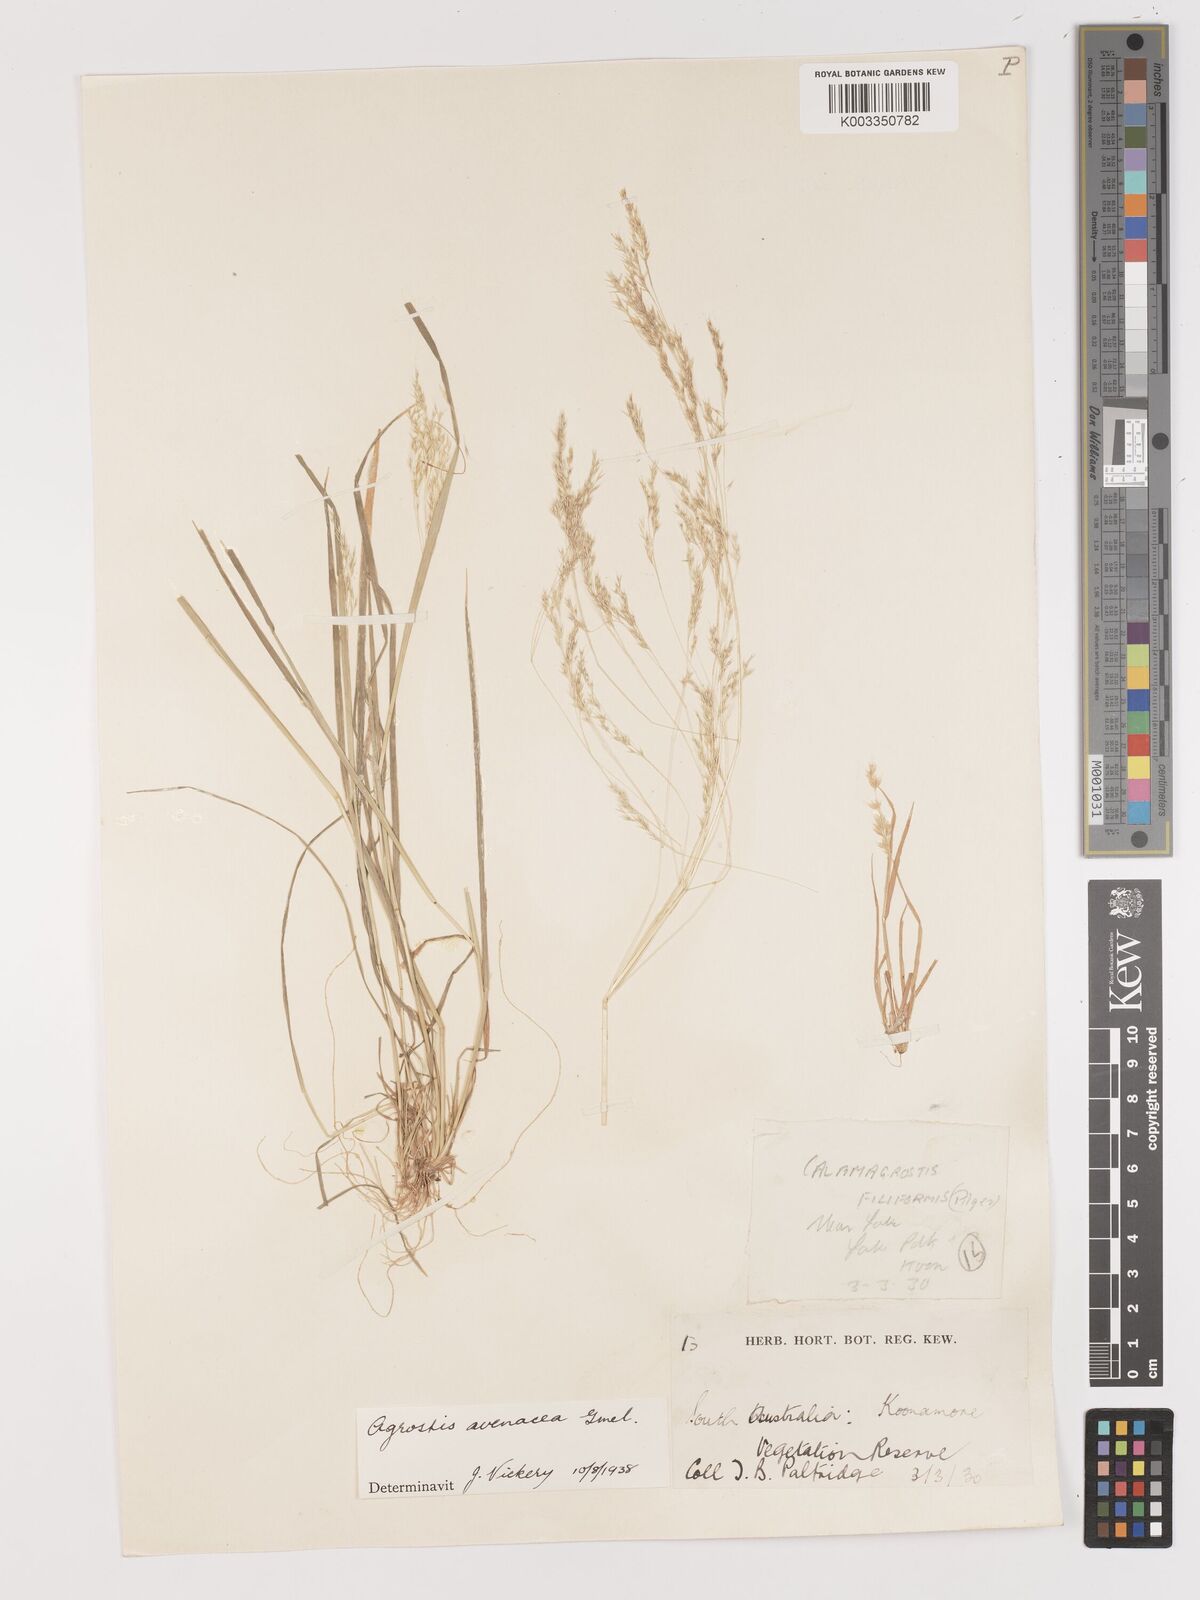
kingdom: Plantae
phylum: Tracheophyta
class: Liliopsida
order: Poales
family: Poaceae
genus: Lachnagrostis
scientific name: Lachnagrostis filiformis
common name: Bentgrass
